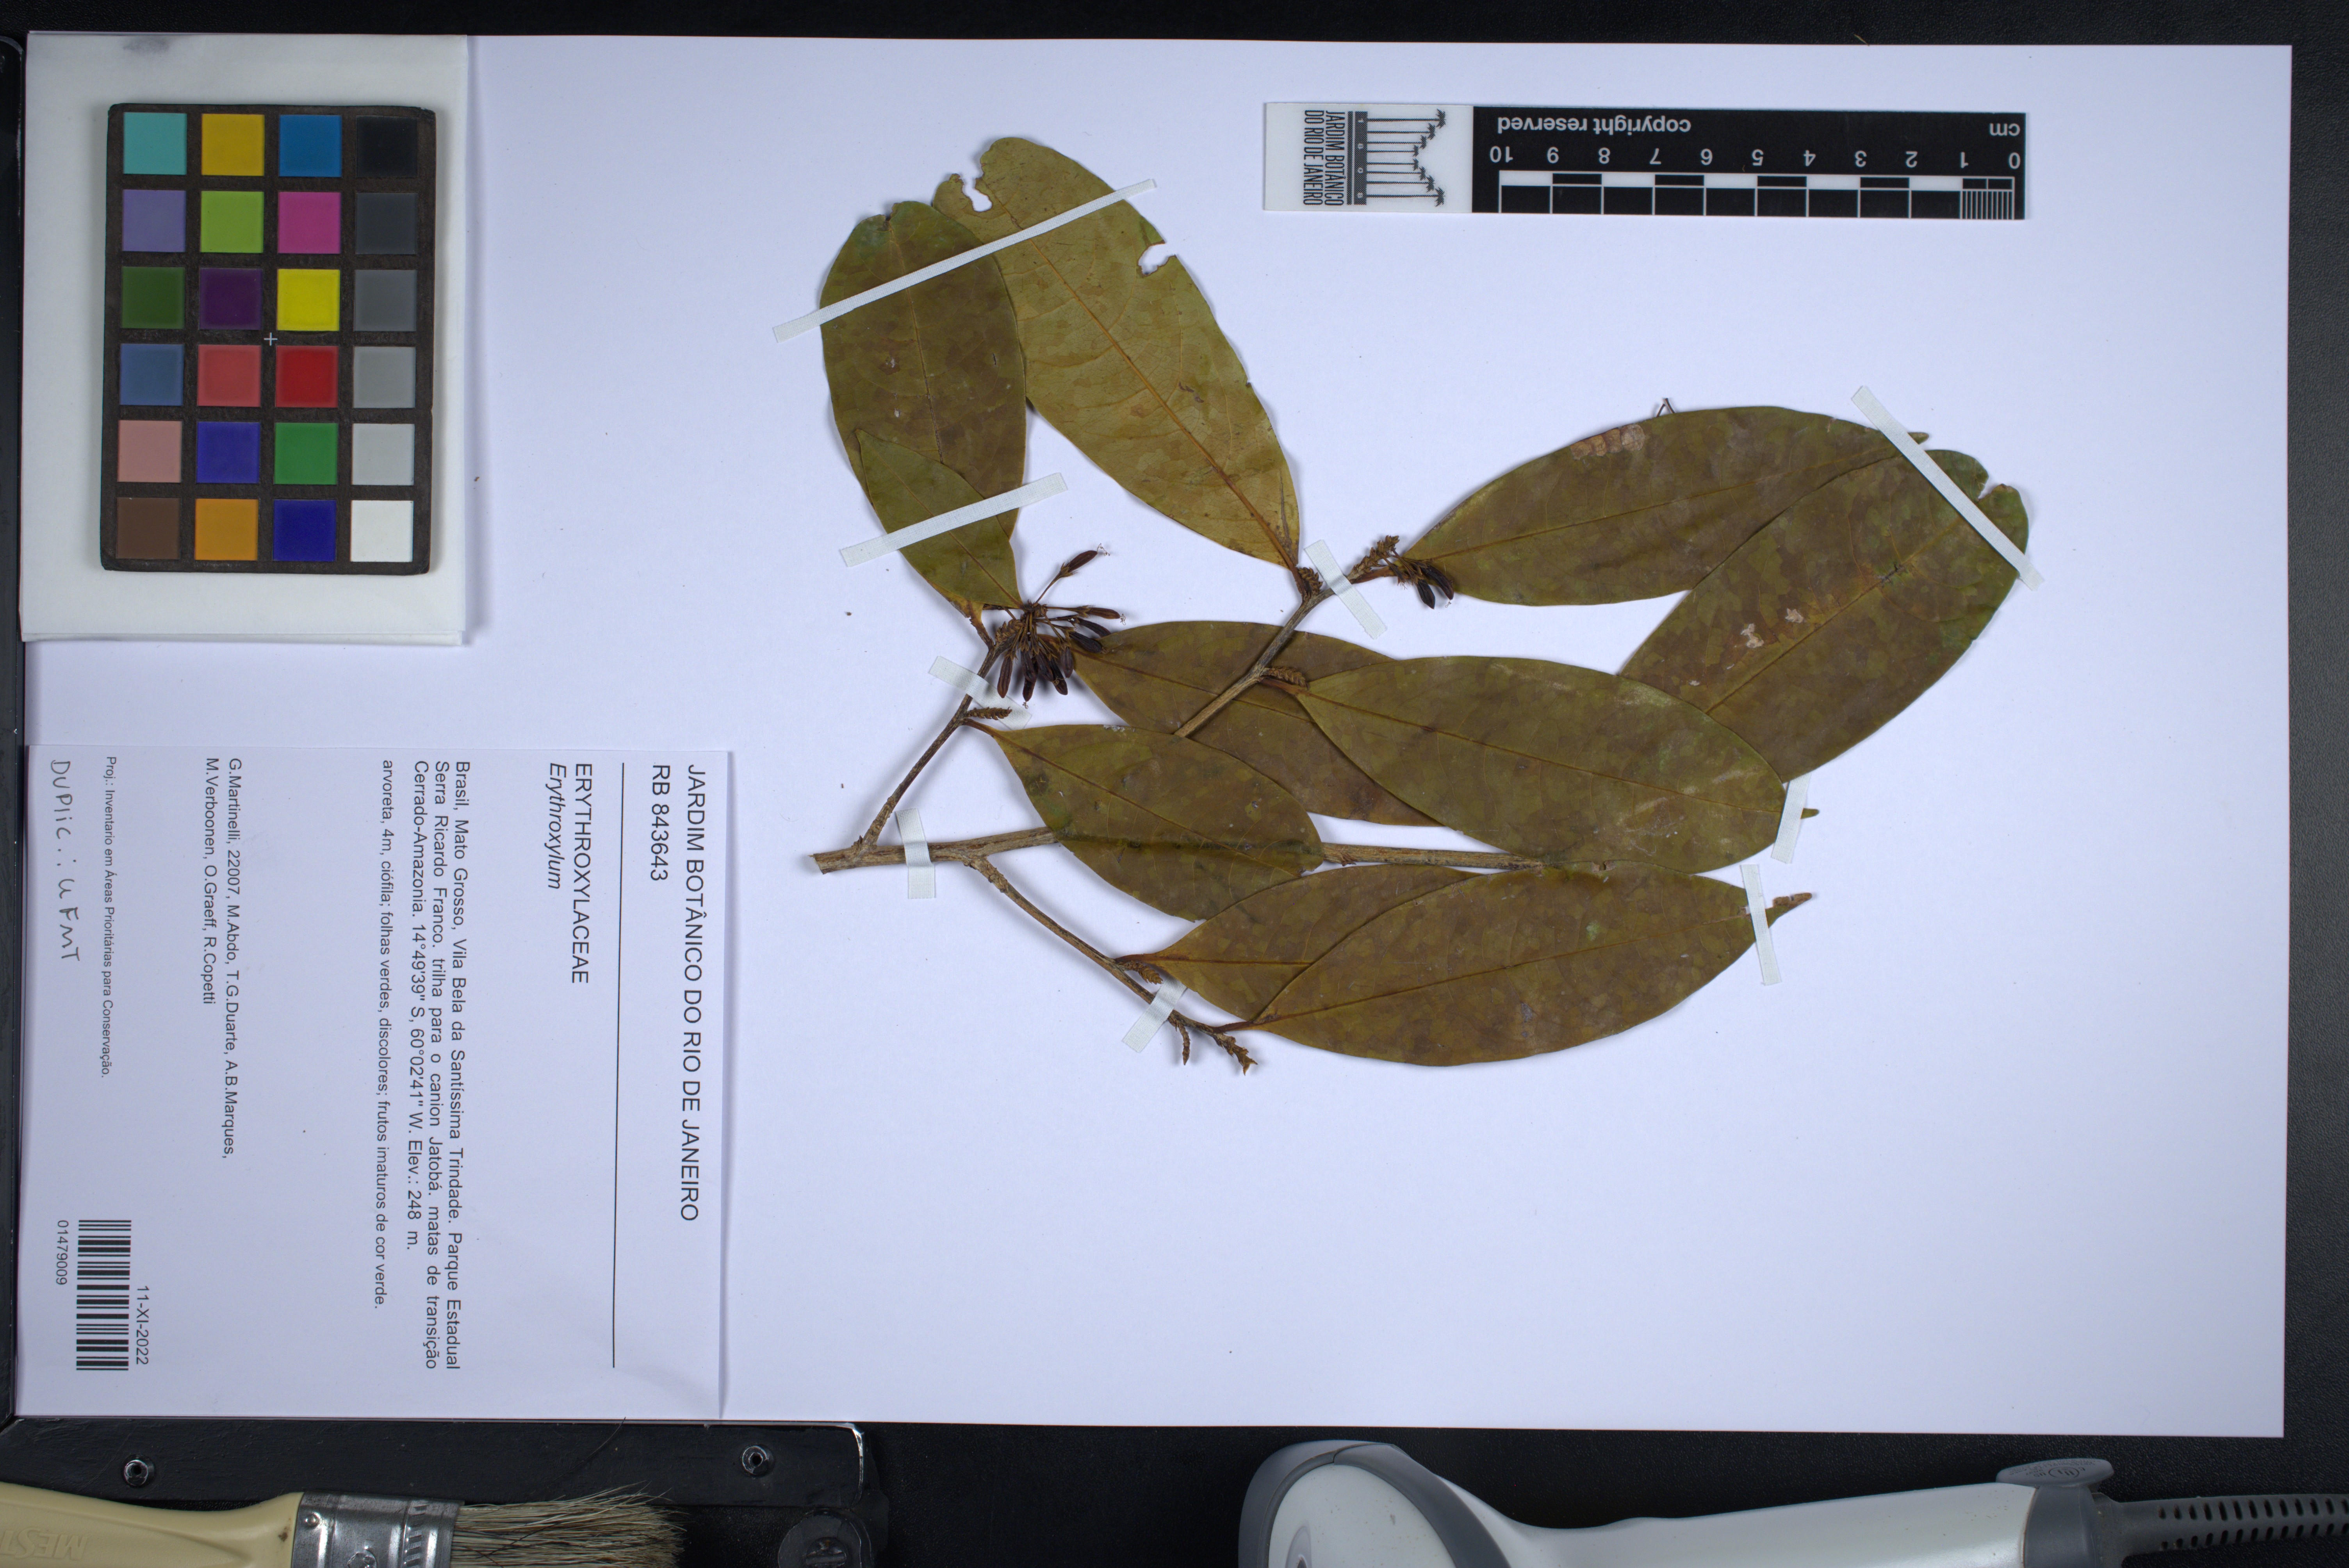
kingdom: Plantae
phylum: Tracheophyta
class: Magnoliopsida
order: Malpighiales
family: Erythroxylaceae
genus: Erythroxylum
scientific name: Erythroxylum
